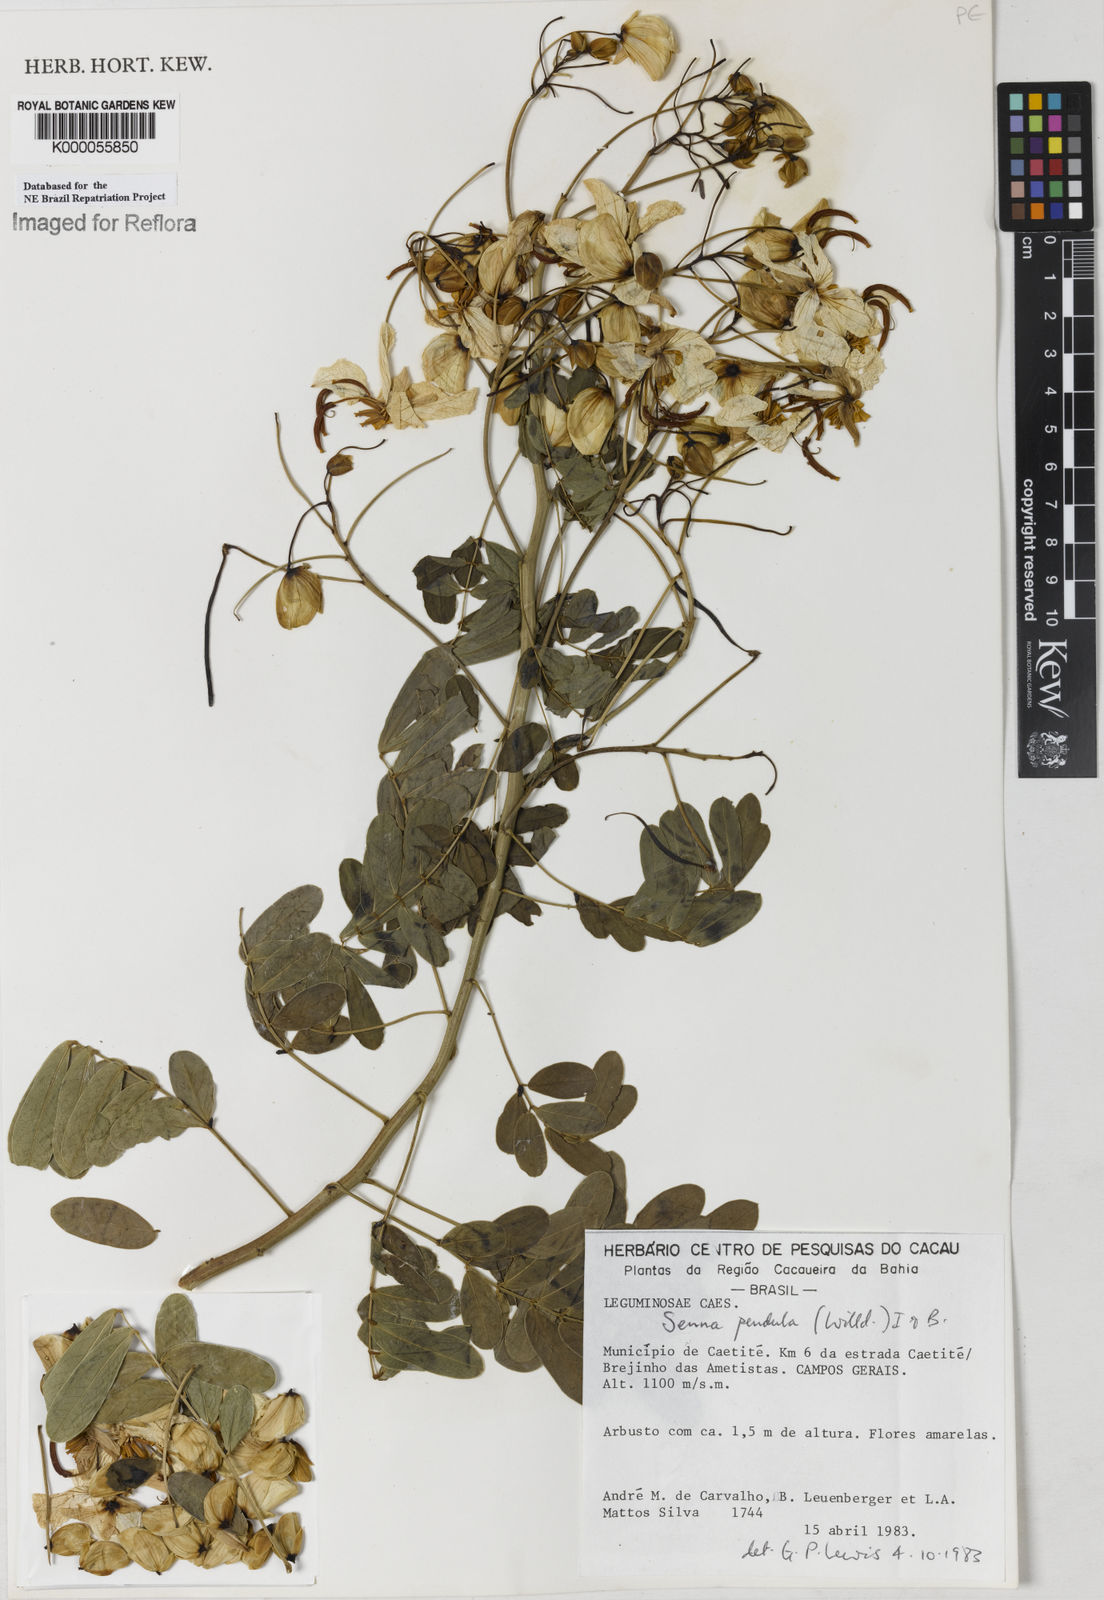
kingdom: Plantae
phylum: Tracheophyta
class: Magnoliopsida
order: Fabales
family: Fabaceae
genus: Senna
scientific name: Senna pendula
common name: Easter cassia
